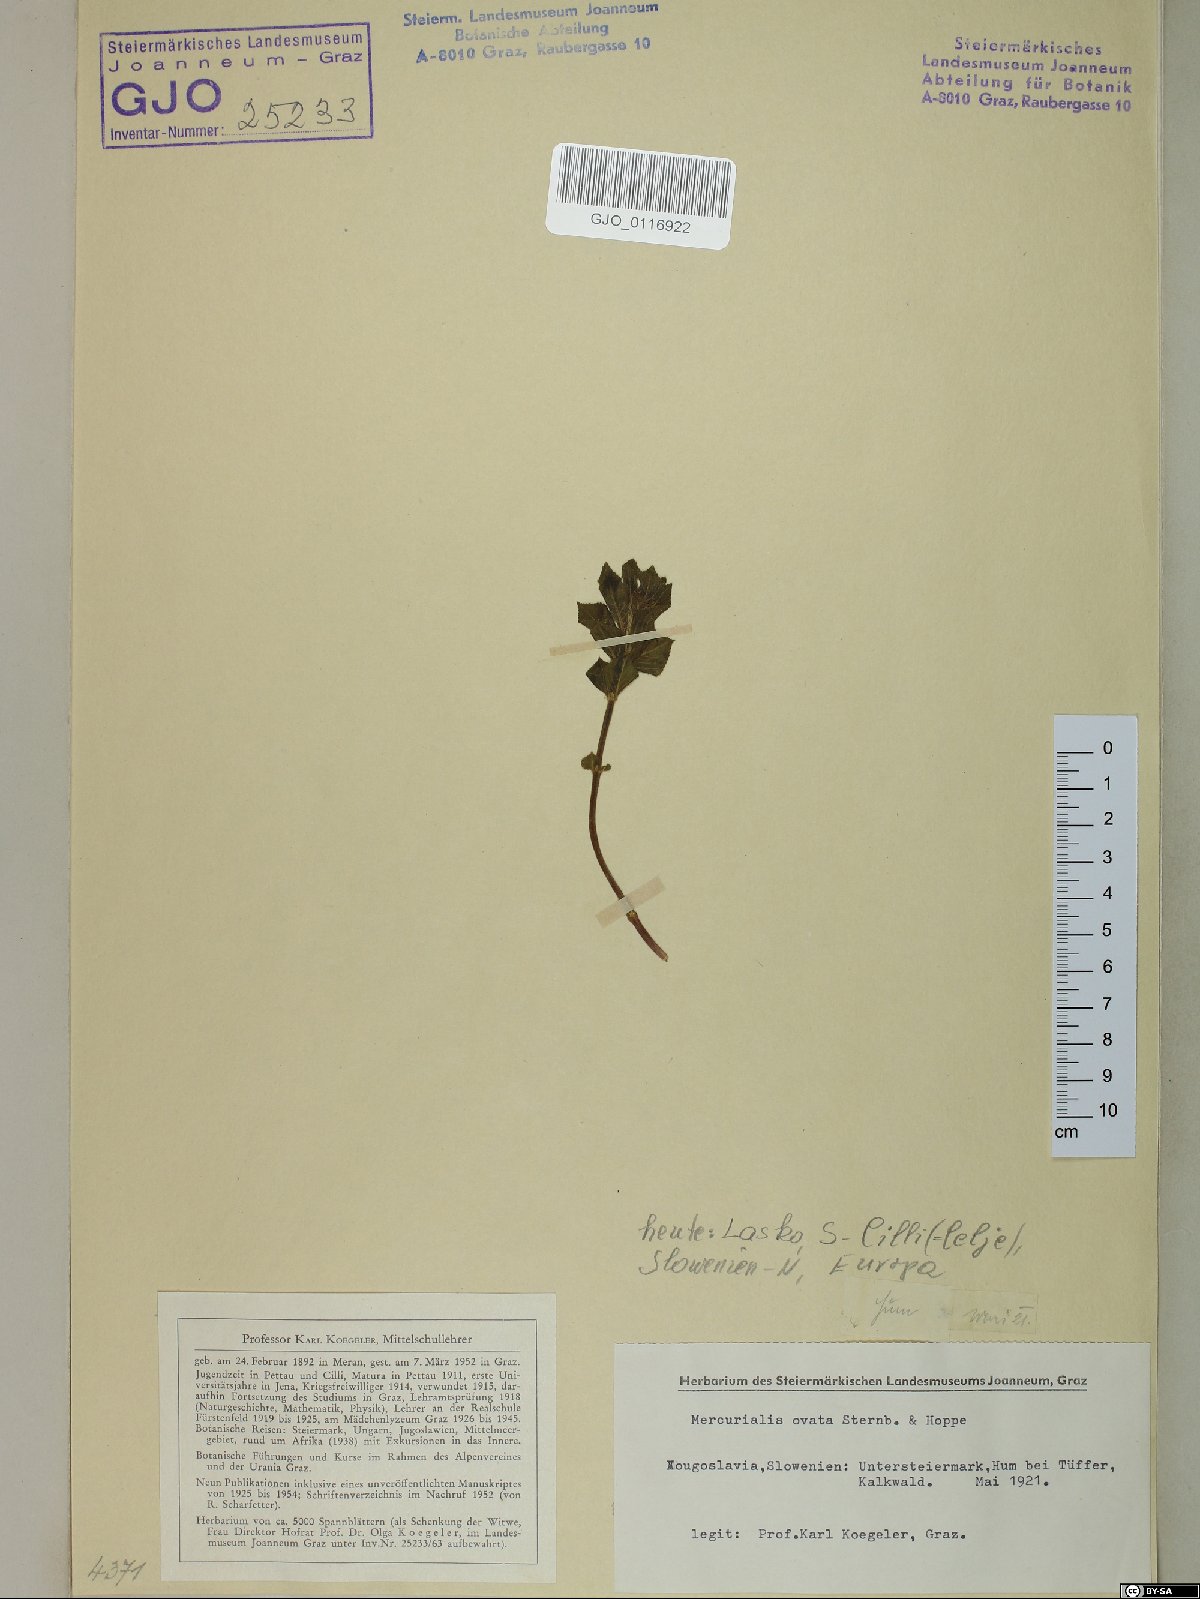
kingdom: Plantae
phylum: Tracheophyta
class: Magnoliopsida
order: Malpighiales
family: Euphorbiaceae
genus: Mercurialis
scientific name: Mercurialis ovata
